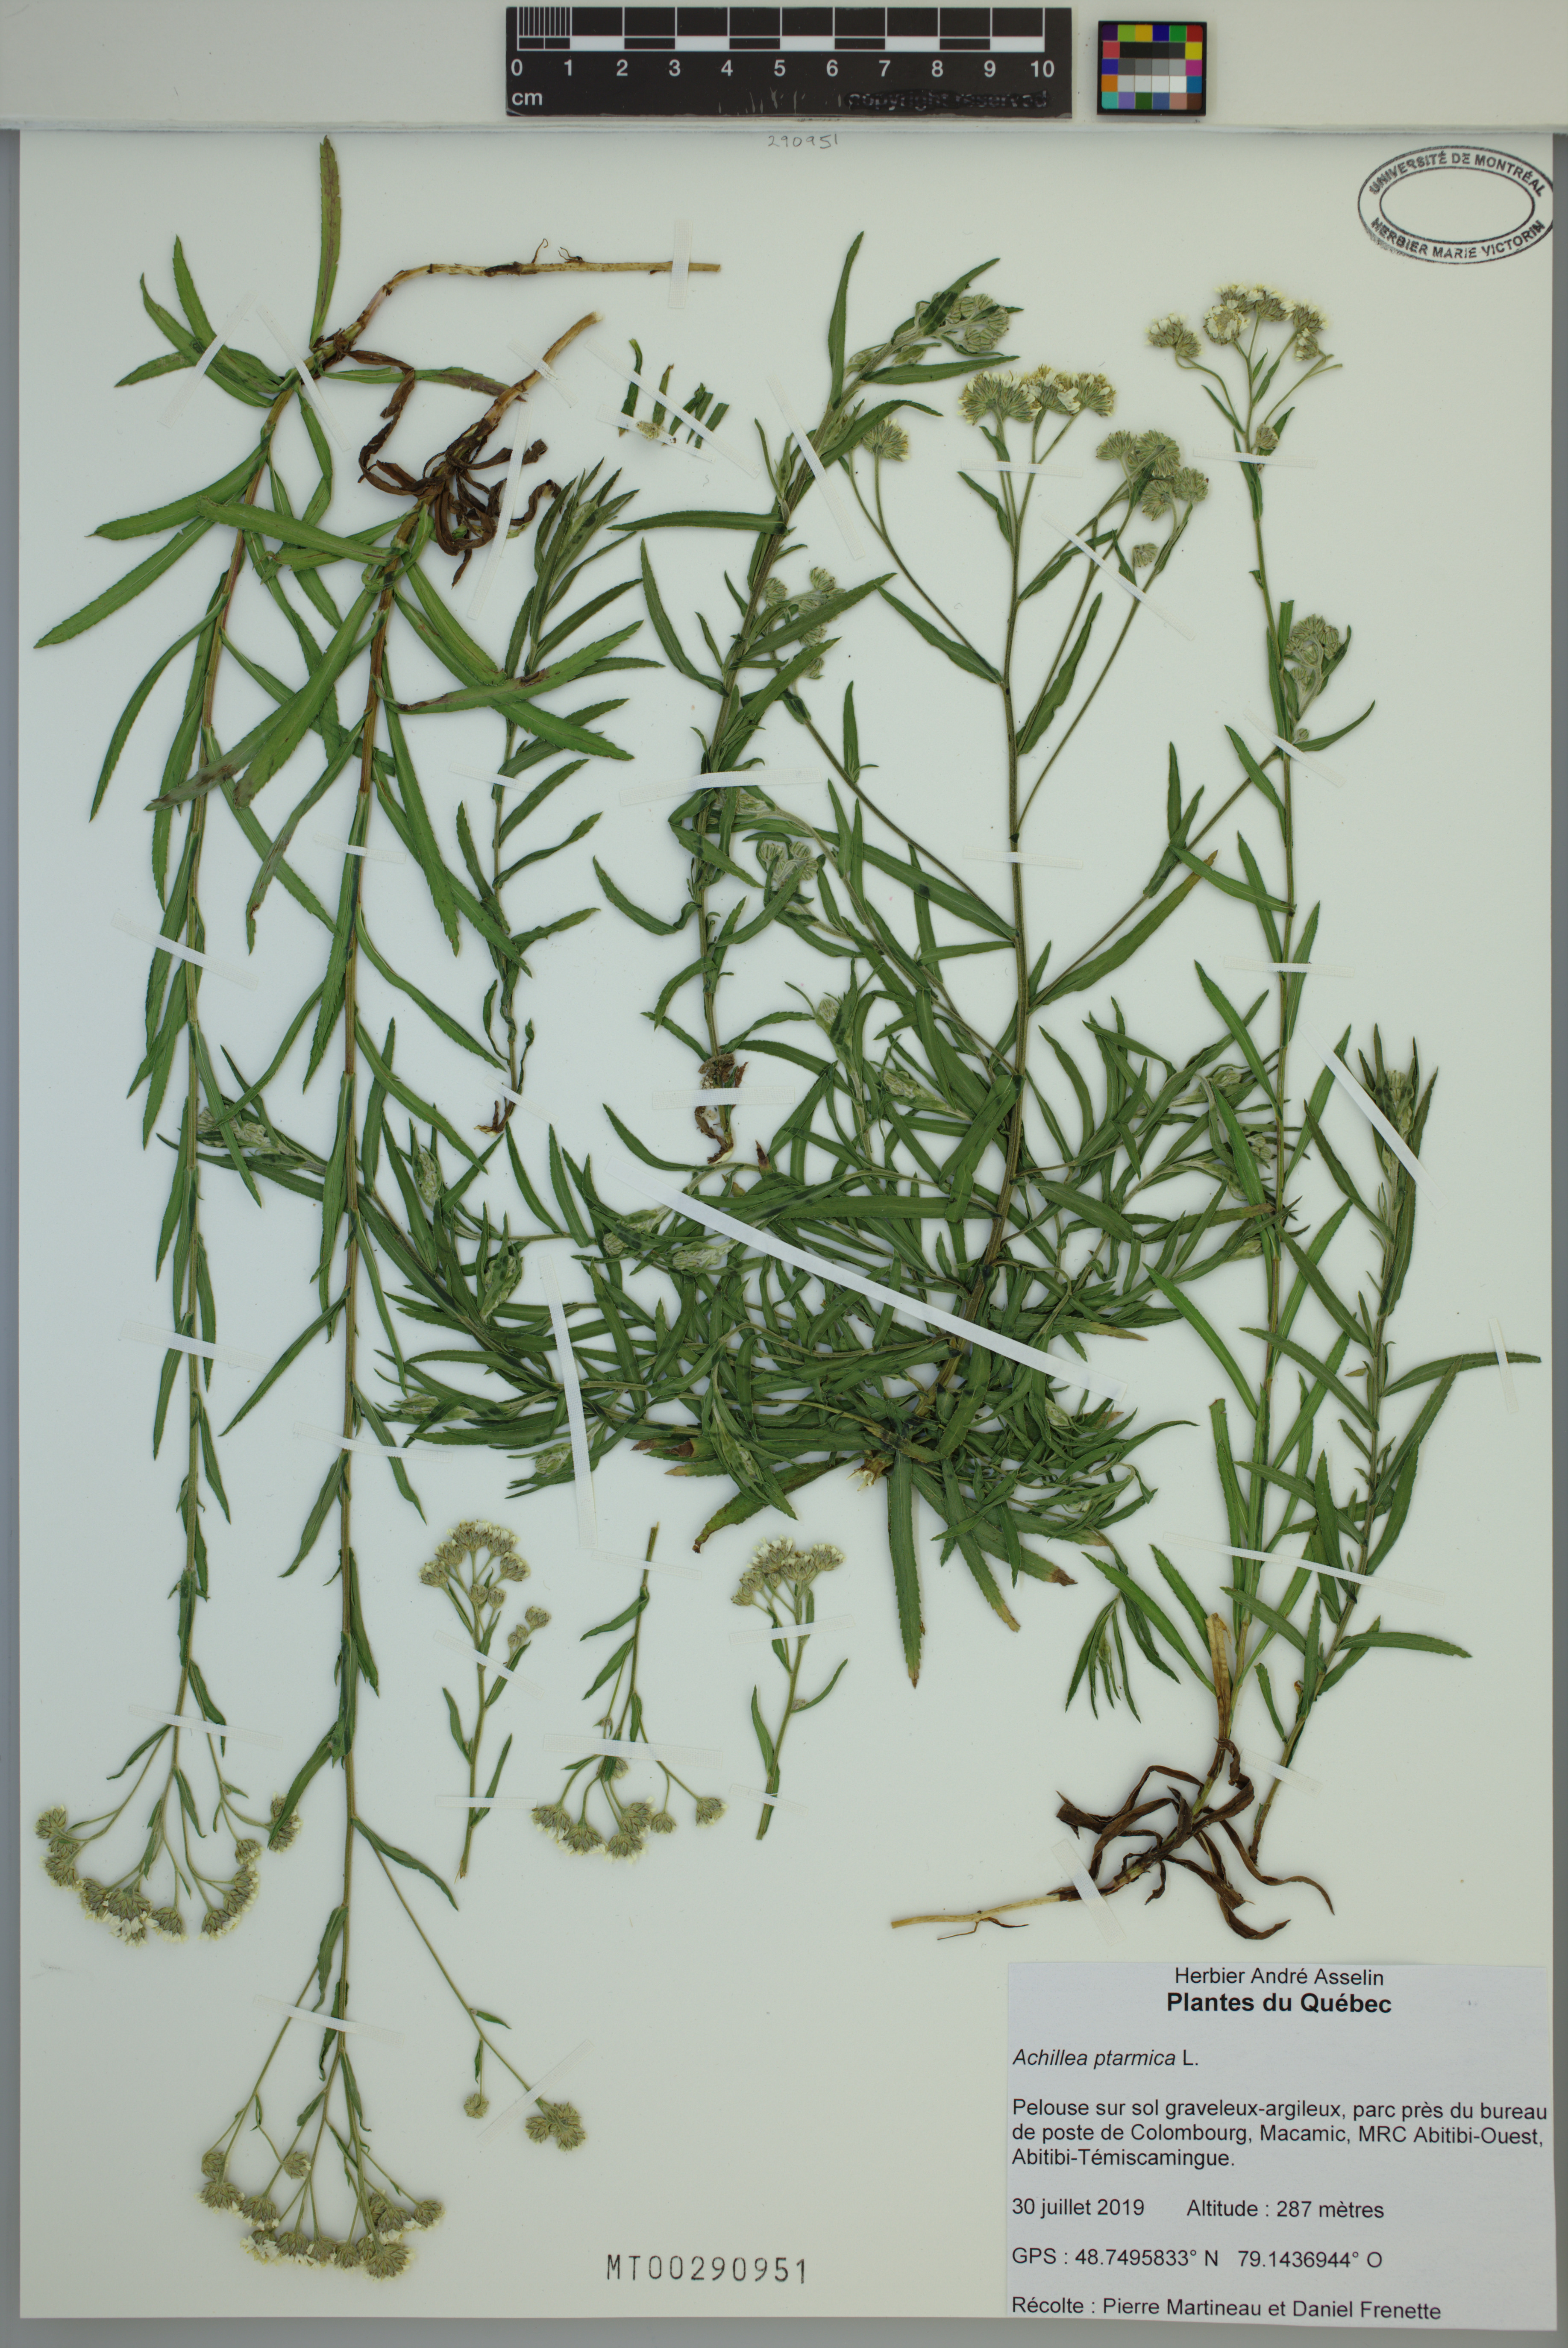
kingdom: Plantae
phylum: Tracheophyta
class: Magnoliopsida
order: Asterales
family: Asteraceae
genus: Achillea
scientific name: Achillea ptarmica
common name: Sneezeweed
